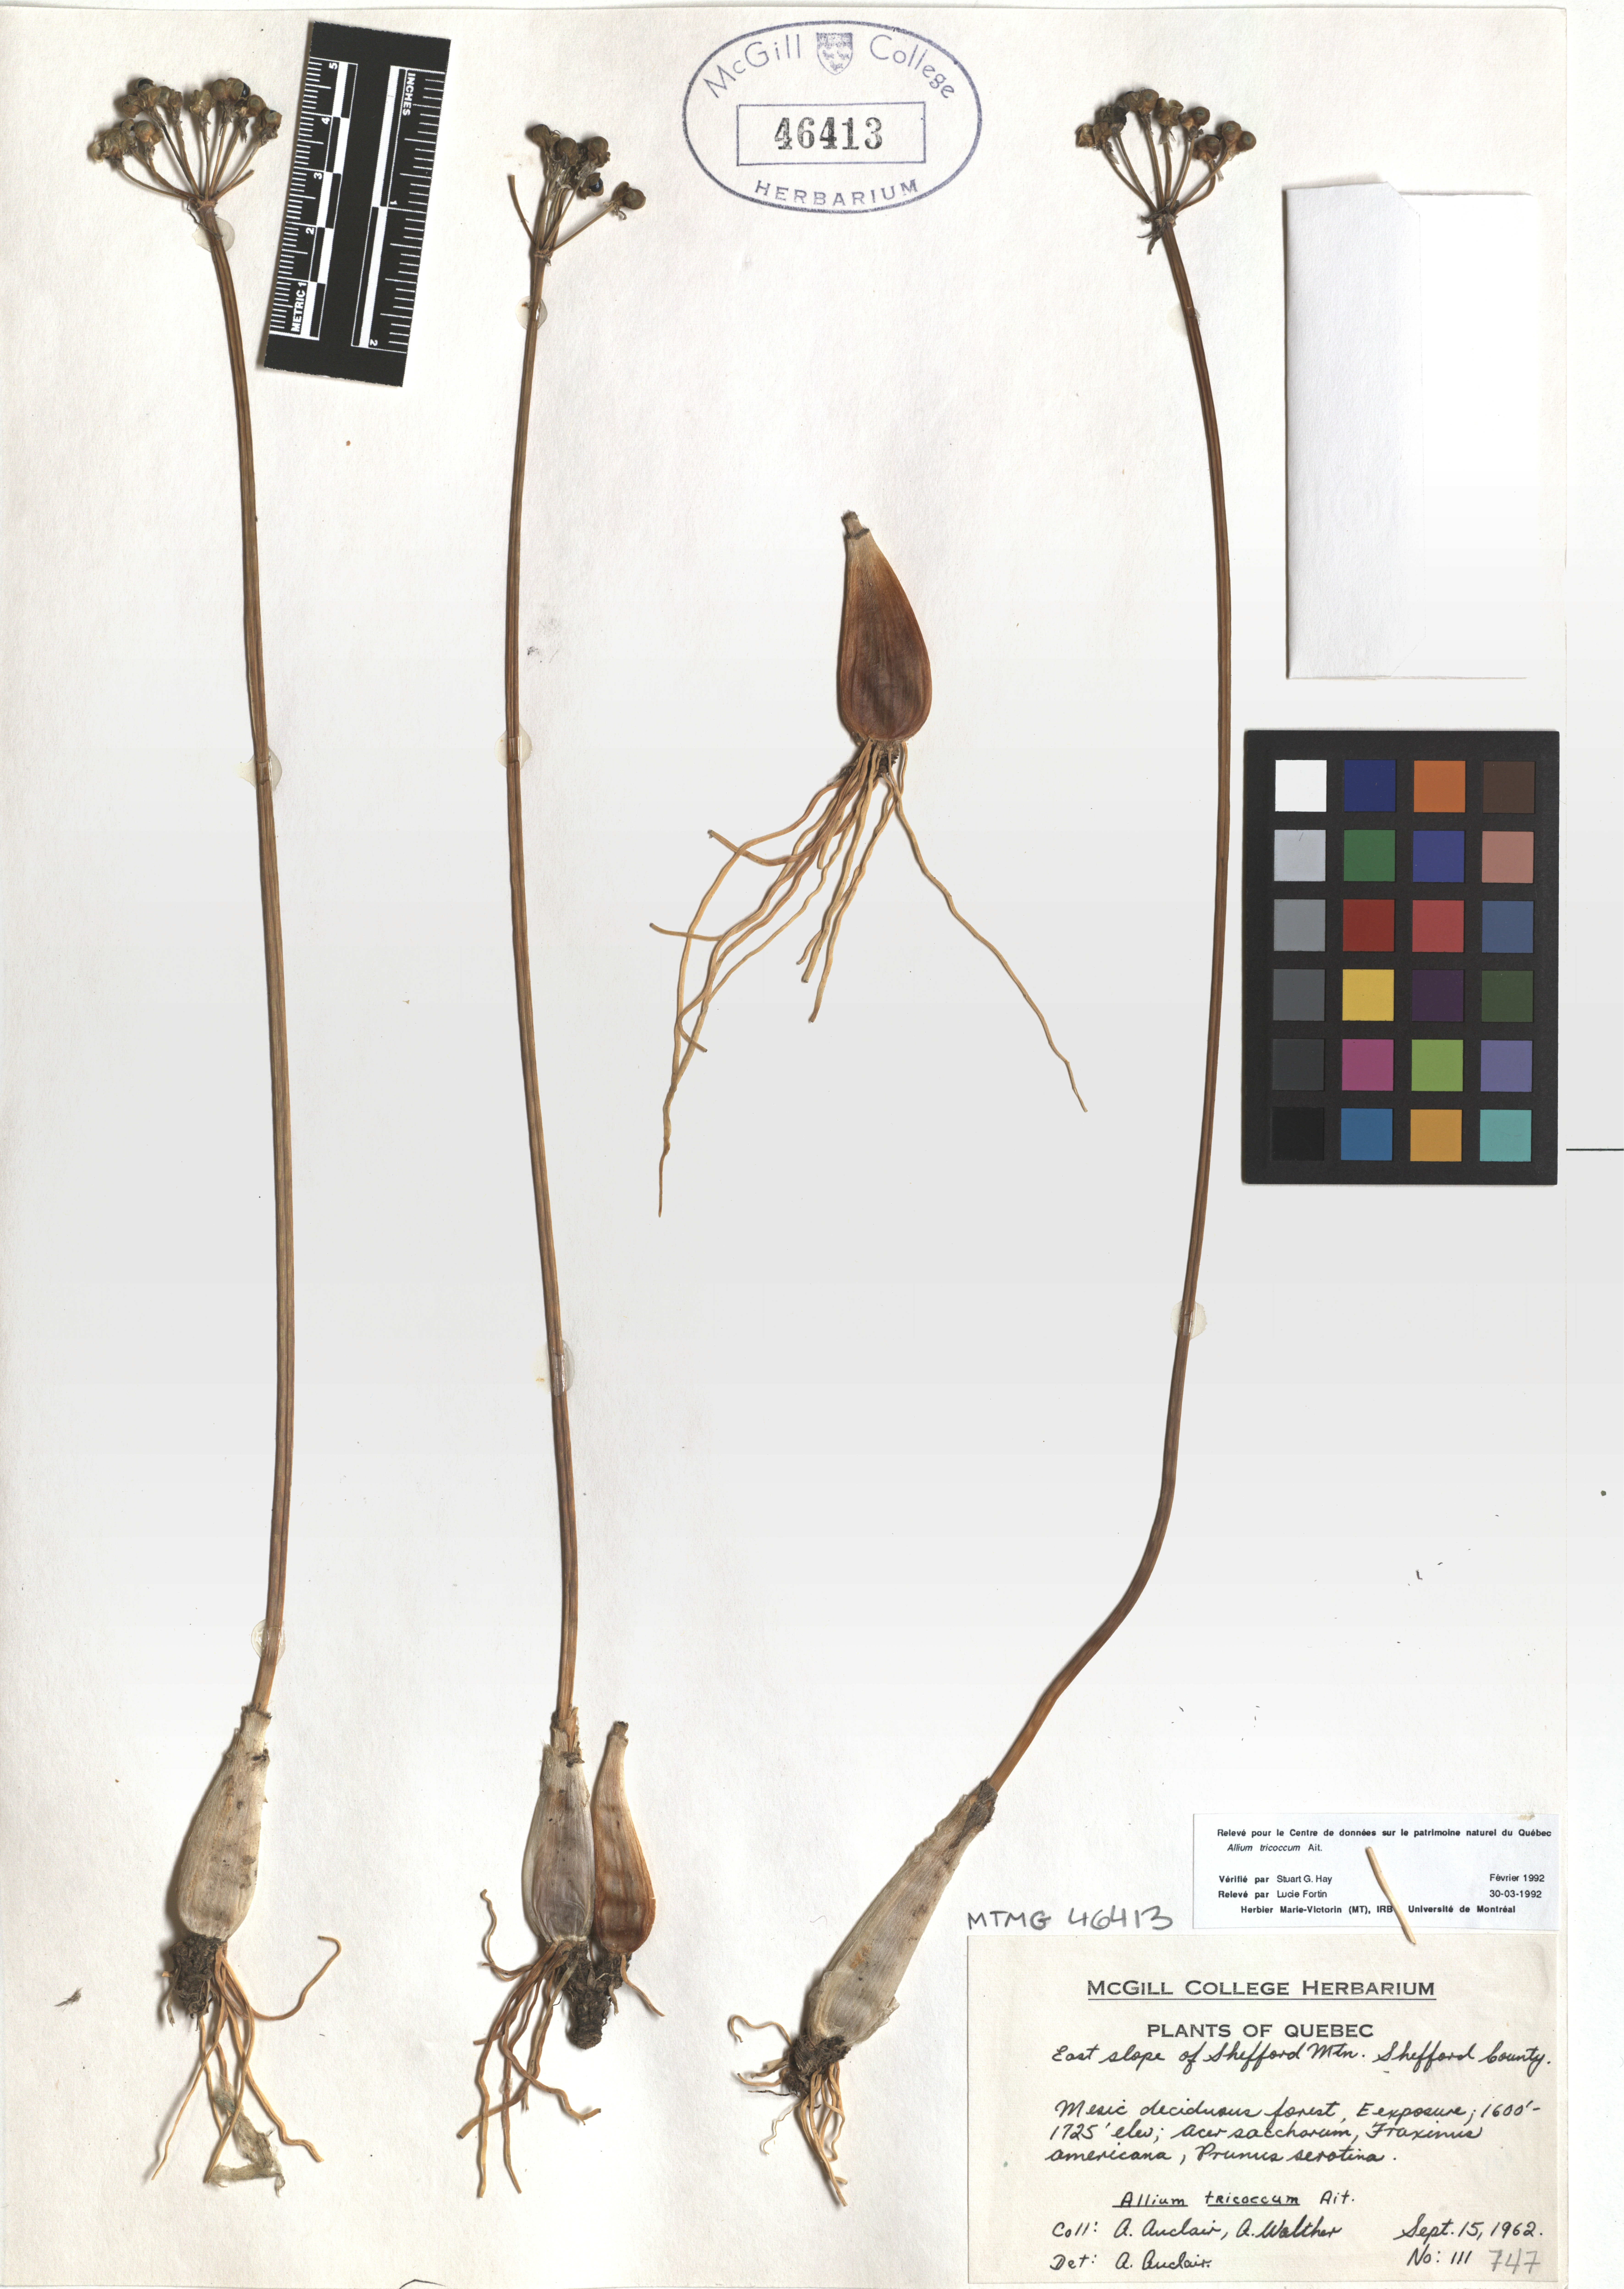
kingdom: Plantae
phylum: Tracheophyta
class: Liliopsida
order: Asparagales
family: Amaryllidaceae
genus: Allium
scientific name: Allium tricoccum
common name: Ramp
